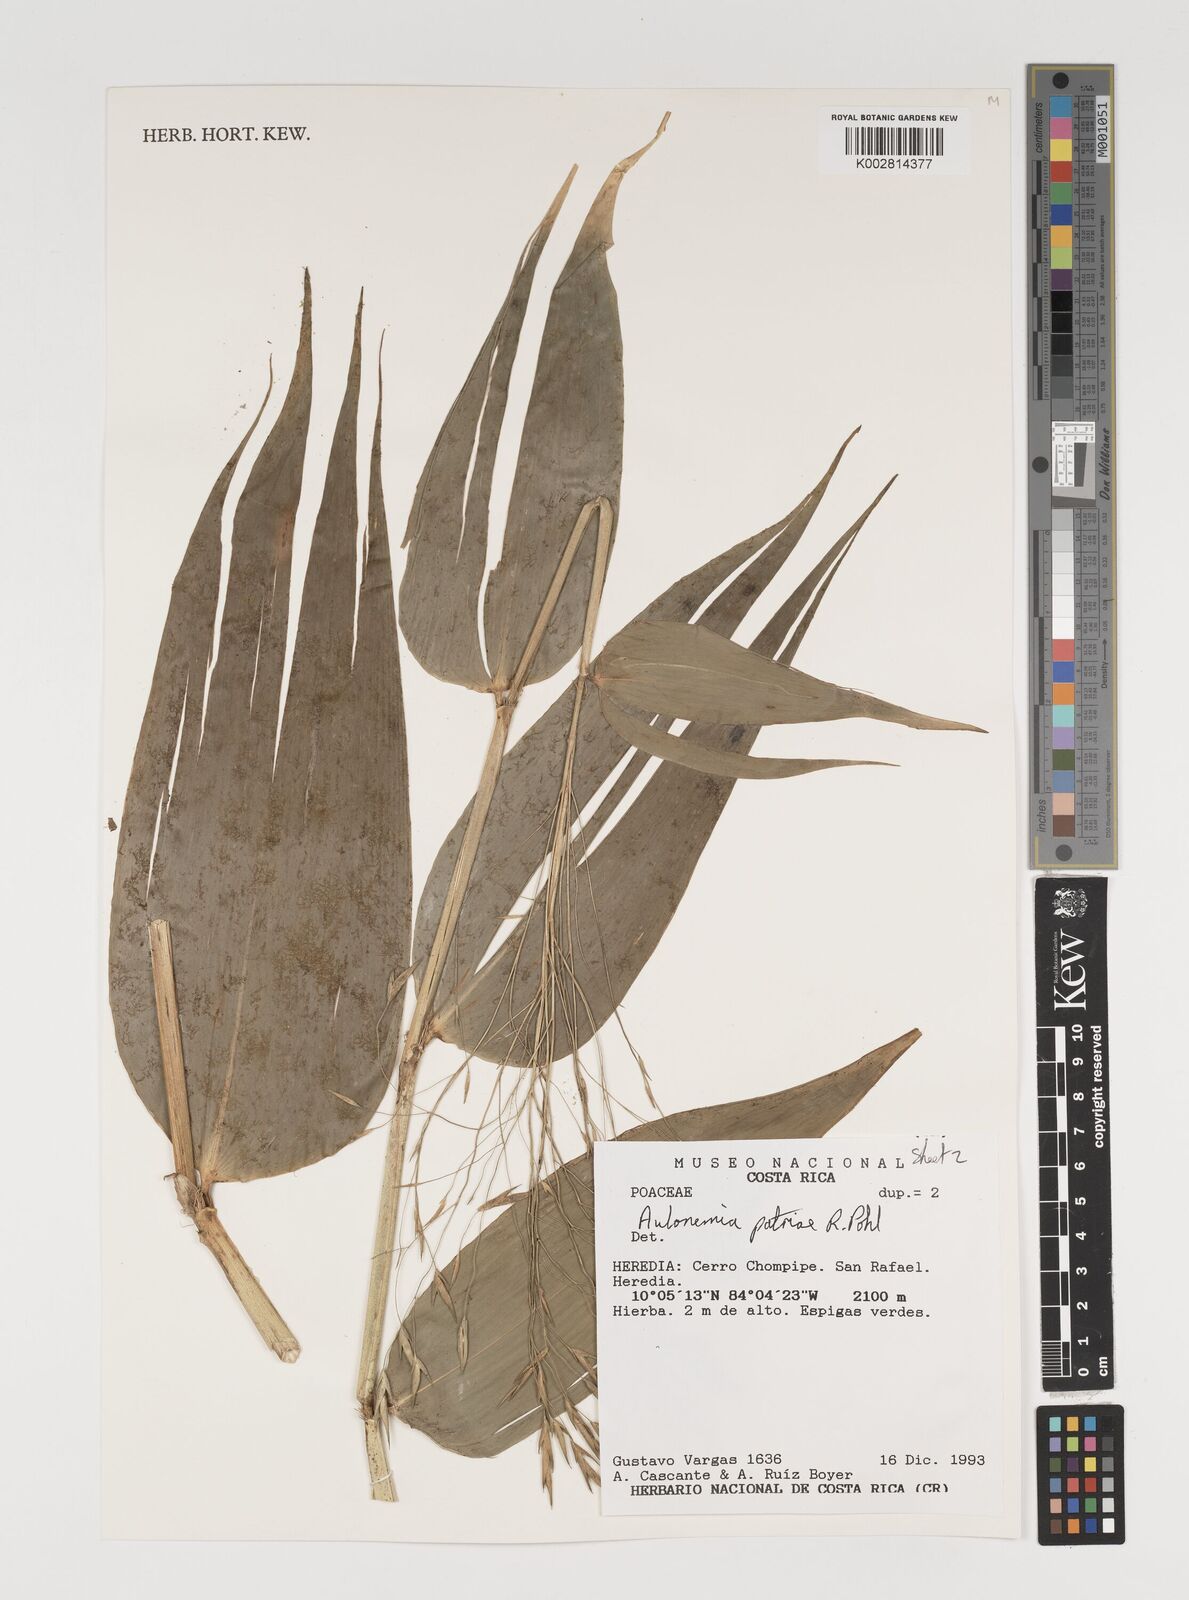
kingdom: Plantae
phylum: Tracheophyta
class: Liliopsida
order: Poales
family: Poaceae
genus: Aulonemia
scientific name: Aulonemia patriae
